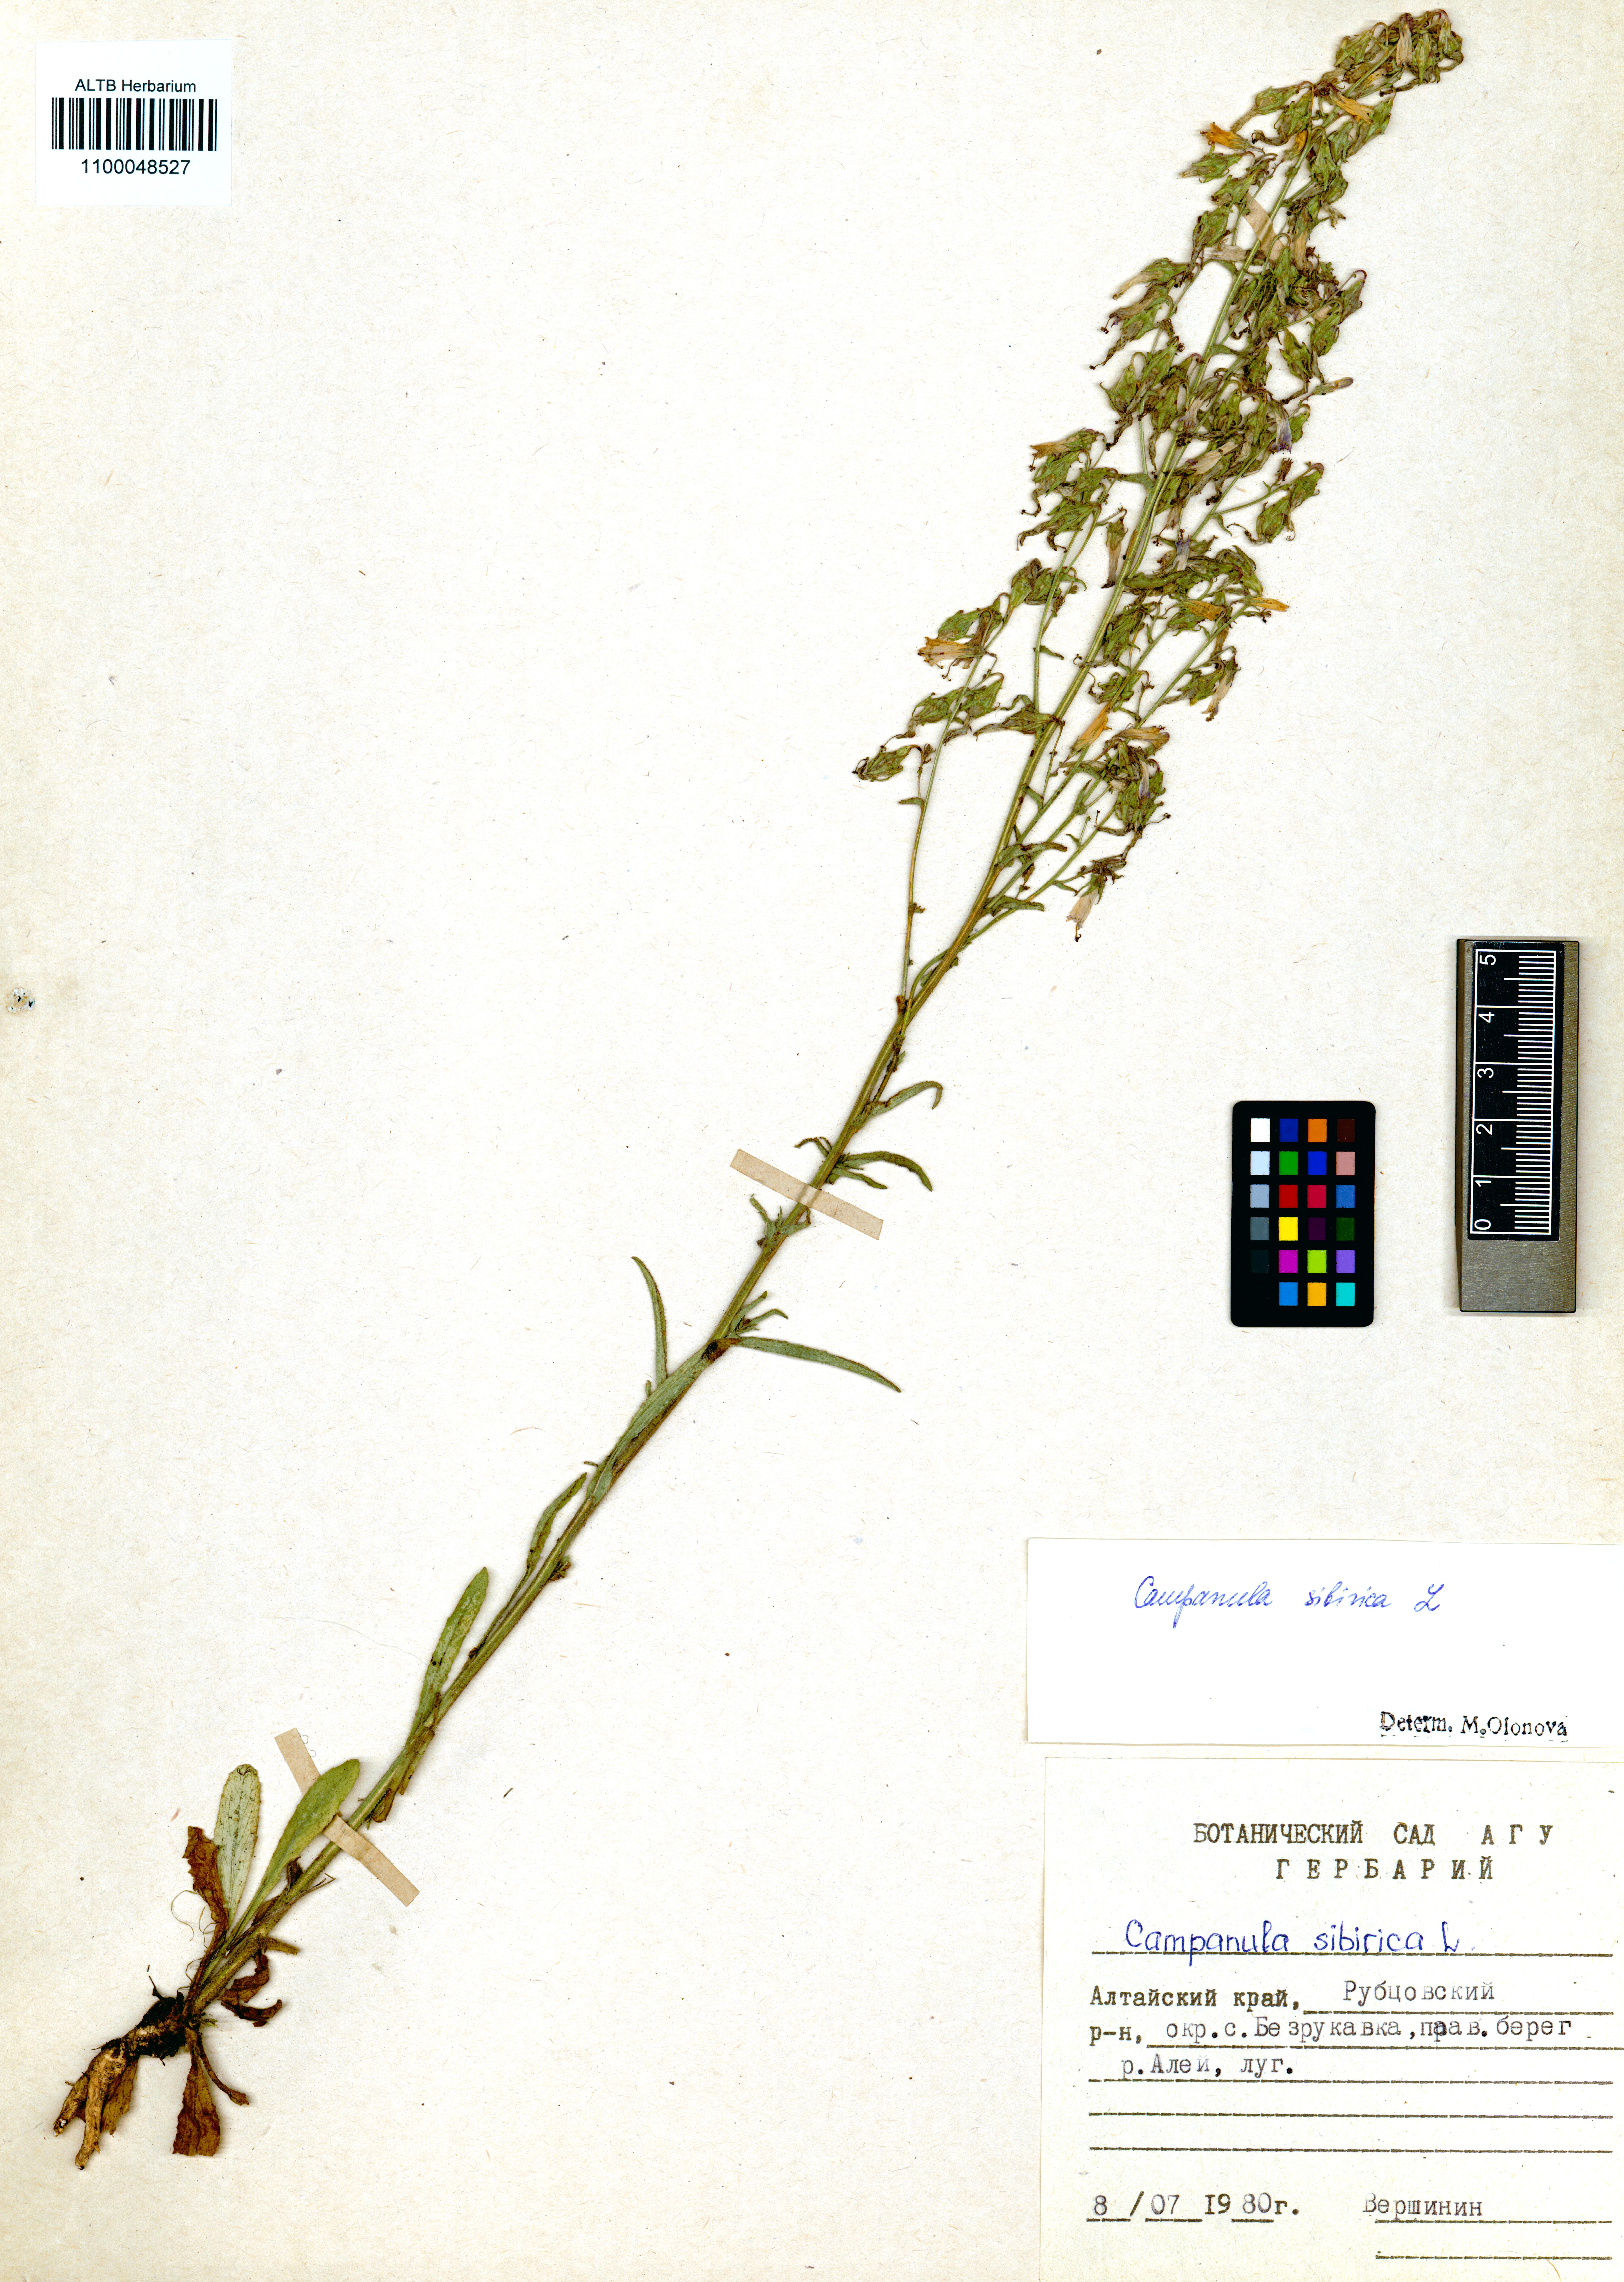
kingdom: Plantae
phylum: Tracheophyta
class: Magnoliopsida
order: Asterales
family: Campanulaceae
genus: Campanula
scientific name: Campanula sibirica
